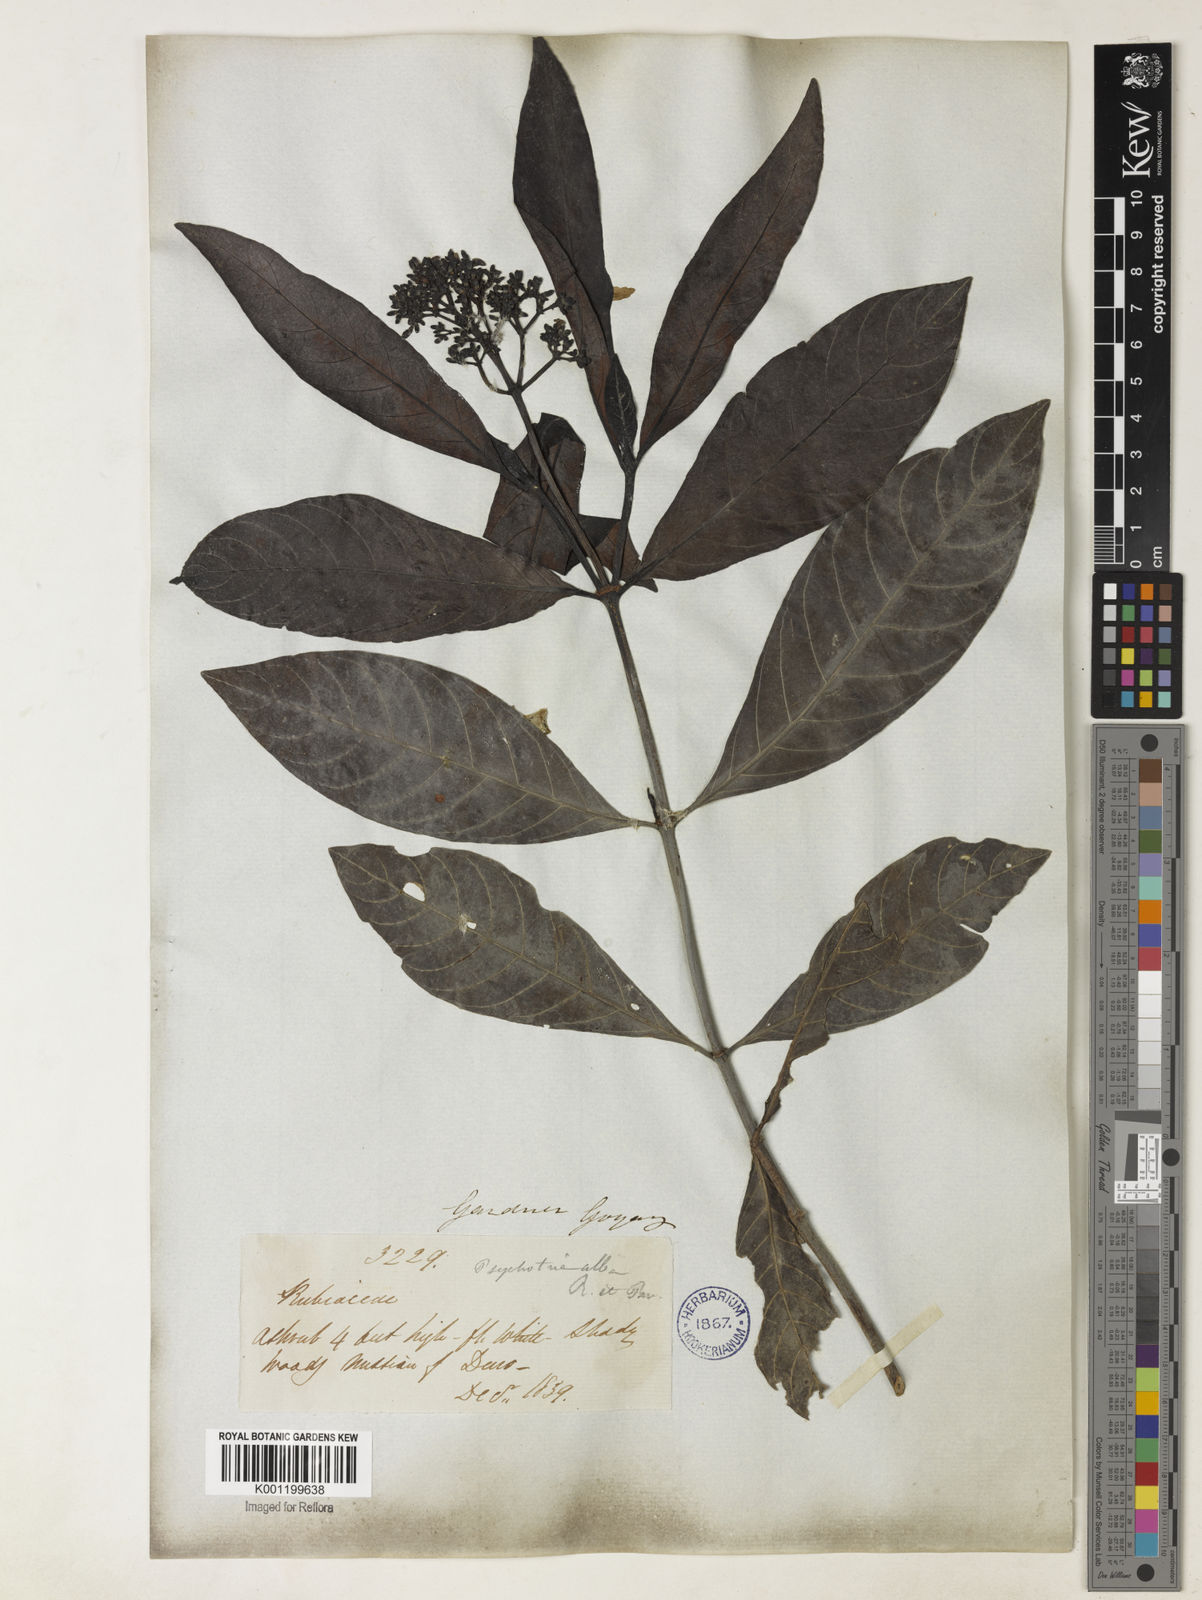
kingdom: Plantae
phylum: Tracheophyta
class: Magnoliopsida
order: Gentianales
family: Rubiaceae
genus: Psychotria
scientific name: Psychotria carthagenensis
